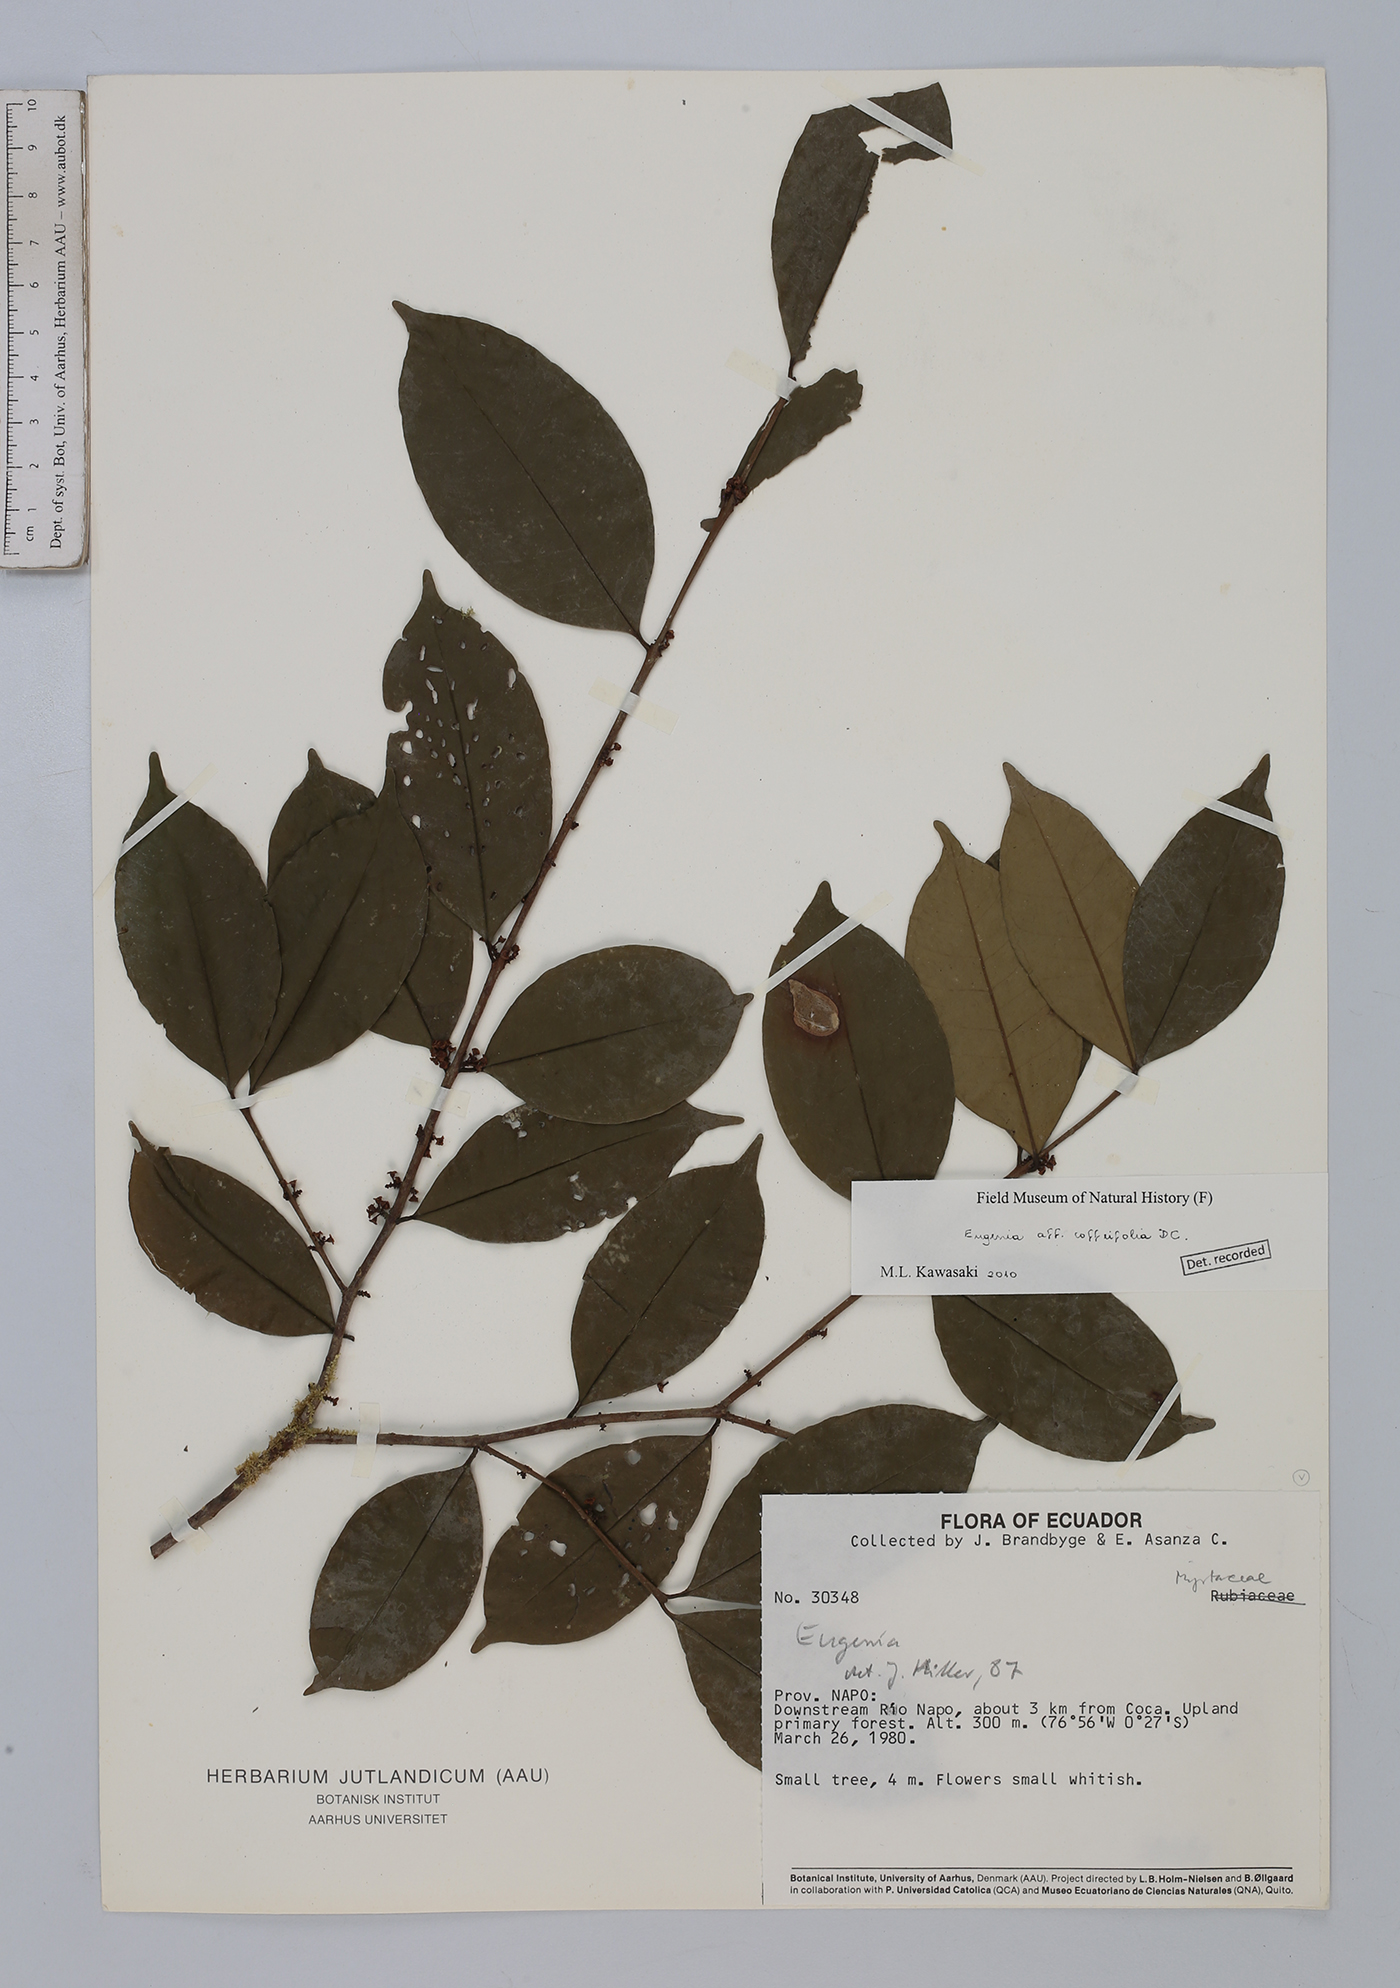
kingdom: Plantae
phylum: Tracheophyta
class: Magnoliopsida
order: Malpighiales
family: Euphorbiaceae
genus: Acalypha
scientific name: Acalypha cuneata
